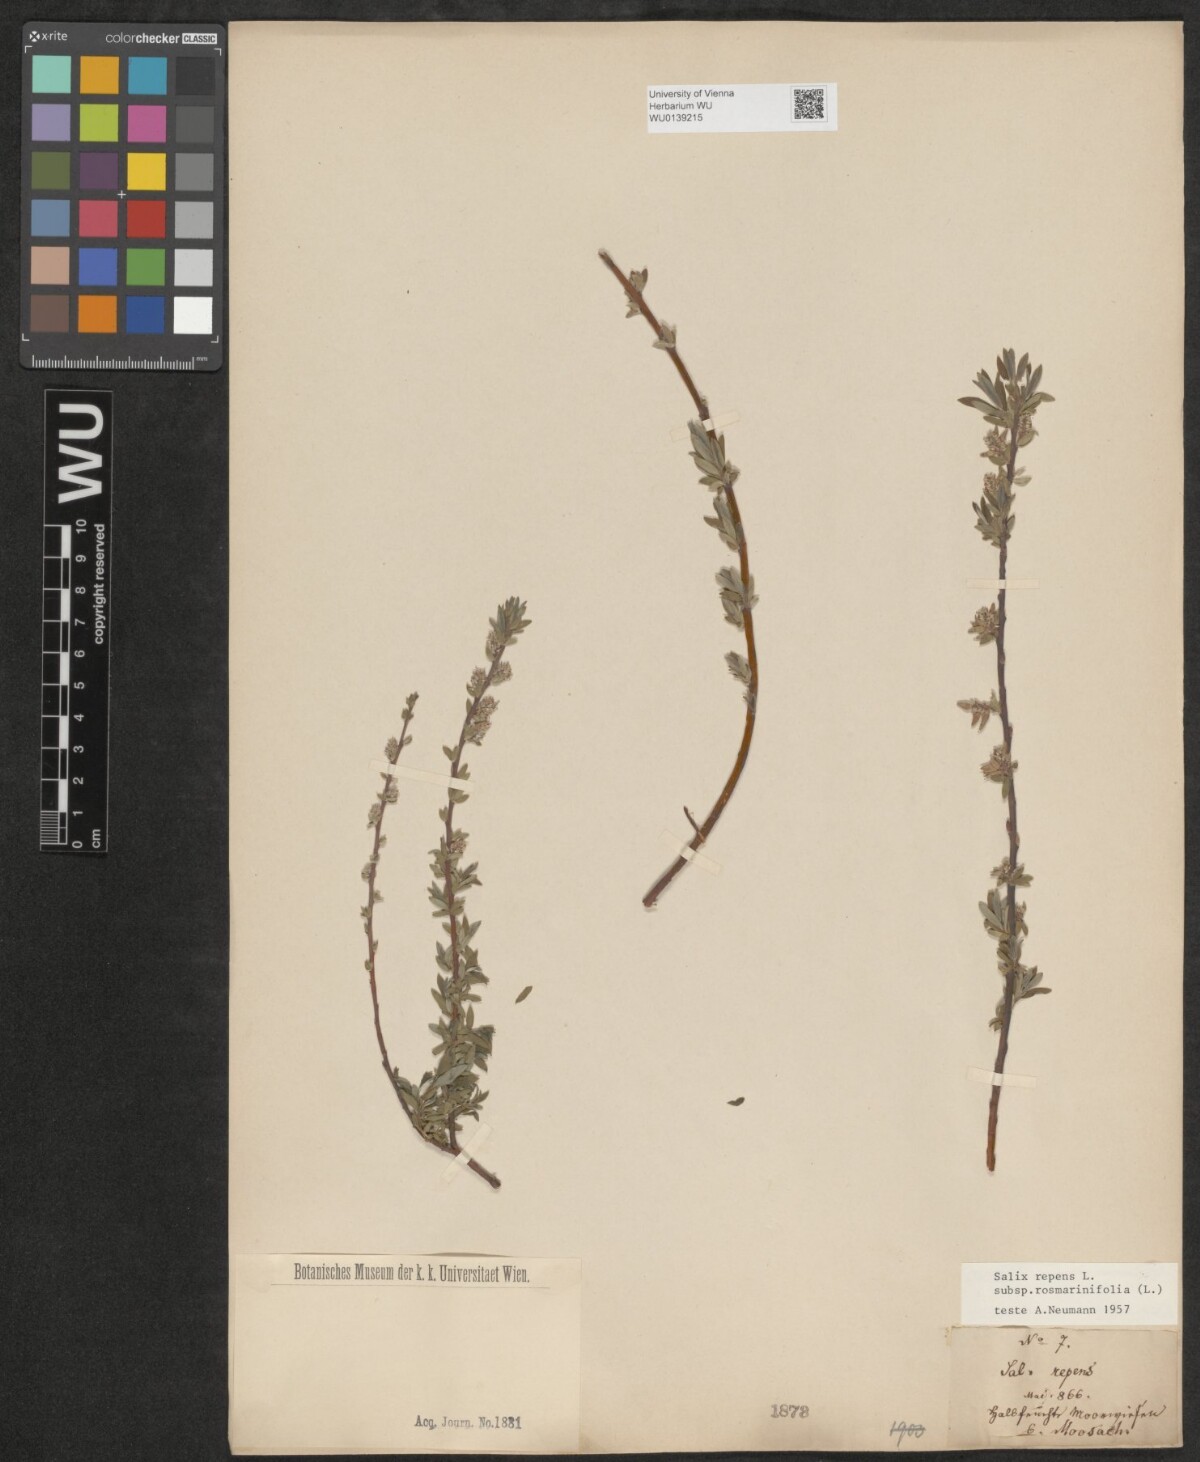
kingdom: Plantae
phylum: Tracheophyta
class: Magnoliopsida
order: Malpighiales
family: Salicaceae
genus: Salix
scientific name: Salix repens
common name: Creeping willow
